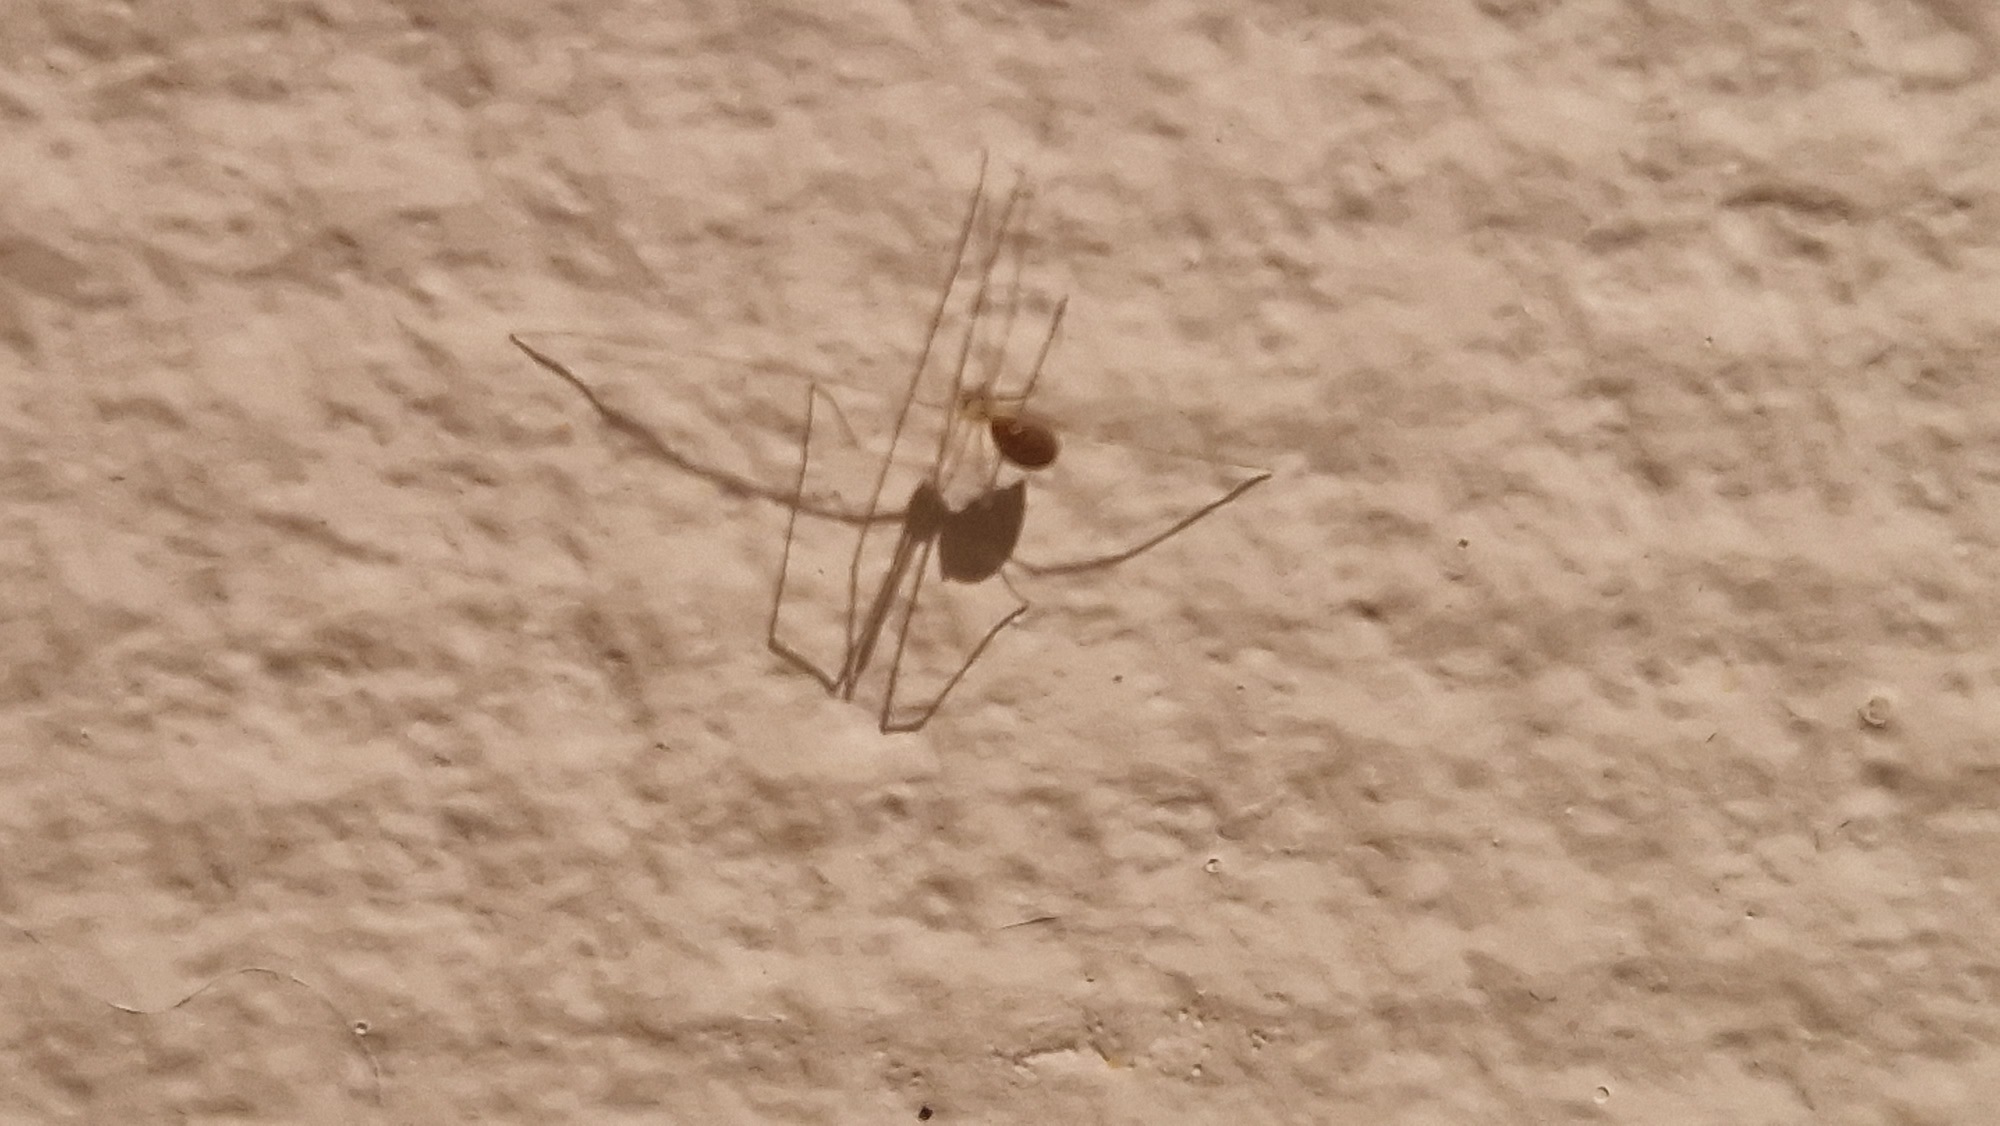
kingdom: Animalia
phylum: Arthropoda
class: Arachnida
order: Araneae
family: Pholcidae
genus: Pholcus
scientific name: Pholcus phalangioides
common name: Mejeredderkop
